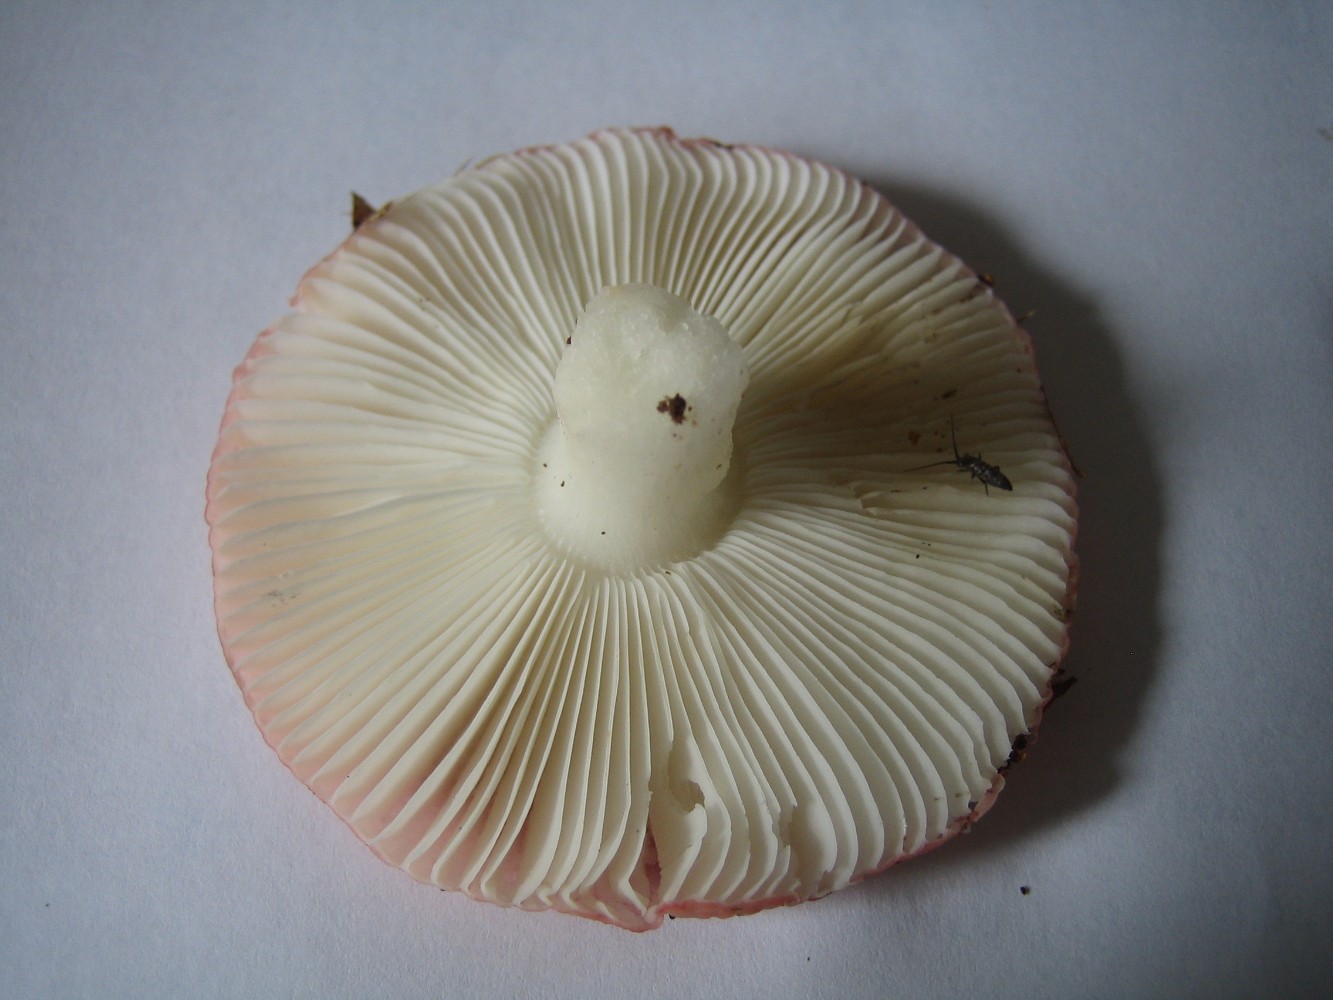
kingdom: Fungi
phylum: Basidiomycota
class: Agaricomycetes
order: Russulales
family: Russulaceae
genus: Russula
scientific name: Russula nobilis
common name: lille gift-skørhat
